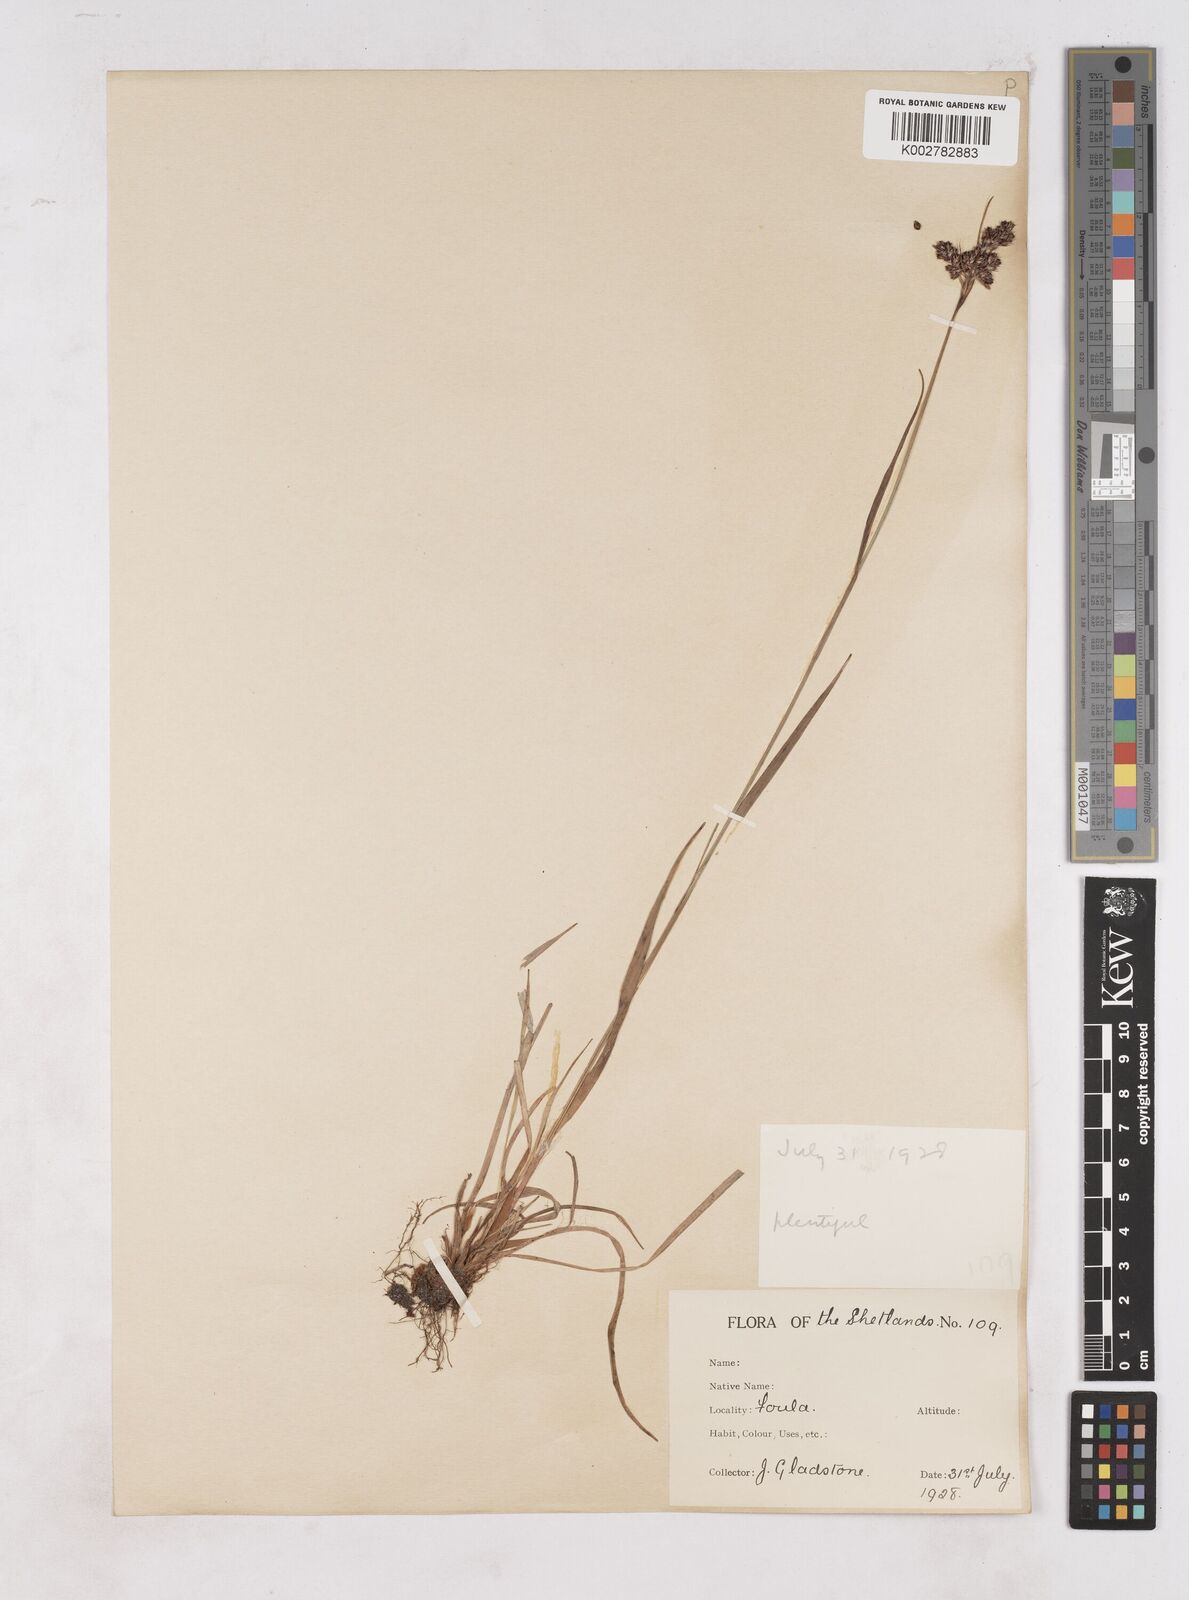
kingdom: Plantae
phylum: Tracheophyta
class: Liliopsida
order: Poales
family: Juncaceae
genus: Luzula
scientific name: Luzula campestris
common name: Field wood-rush
